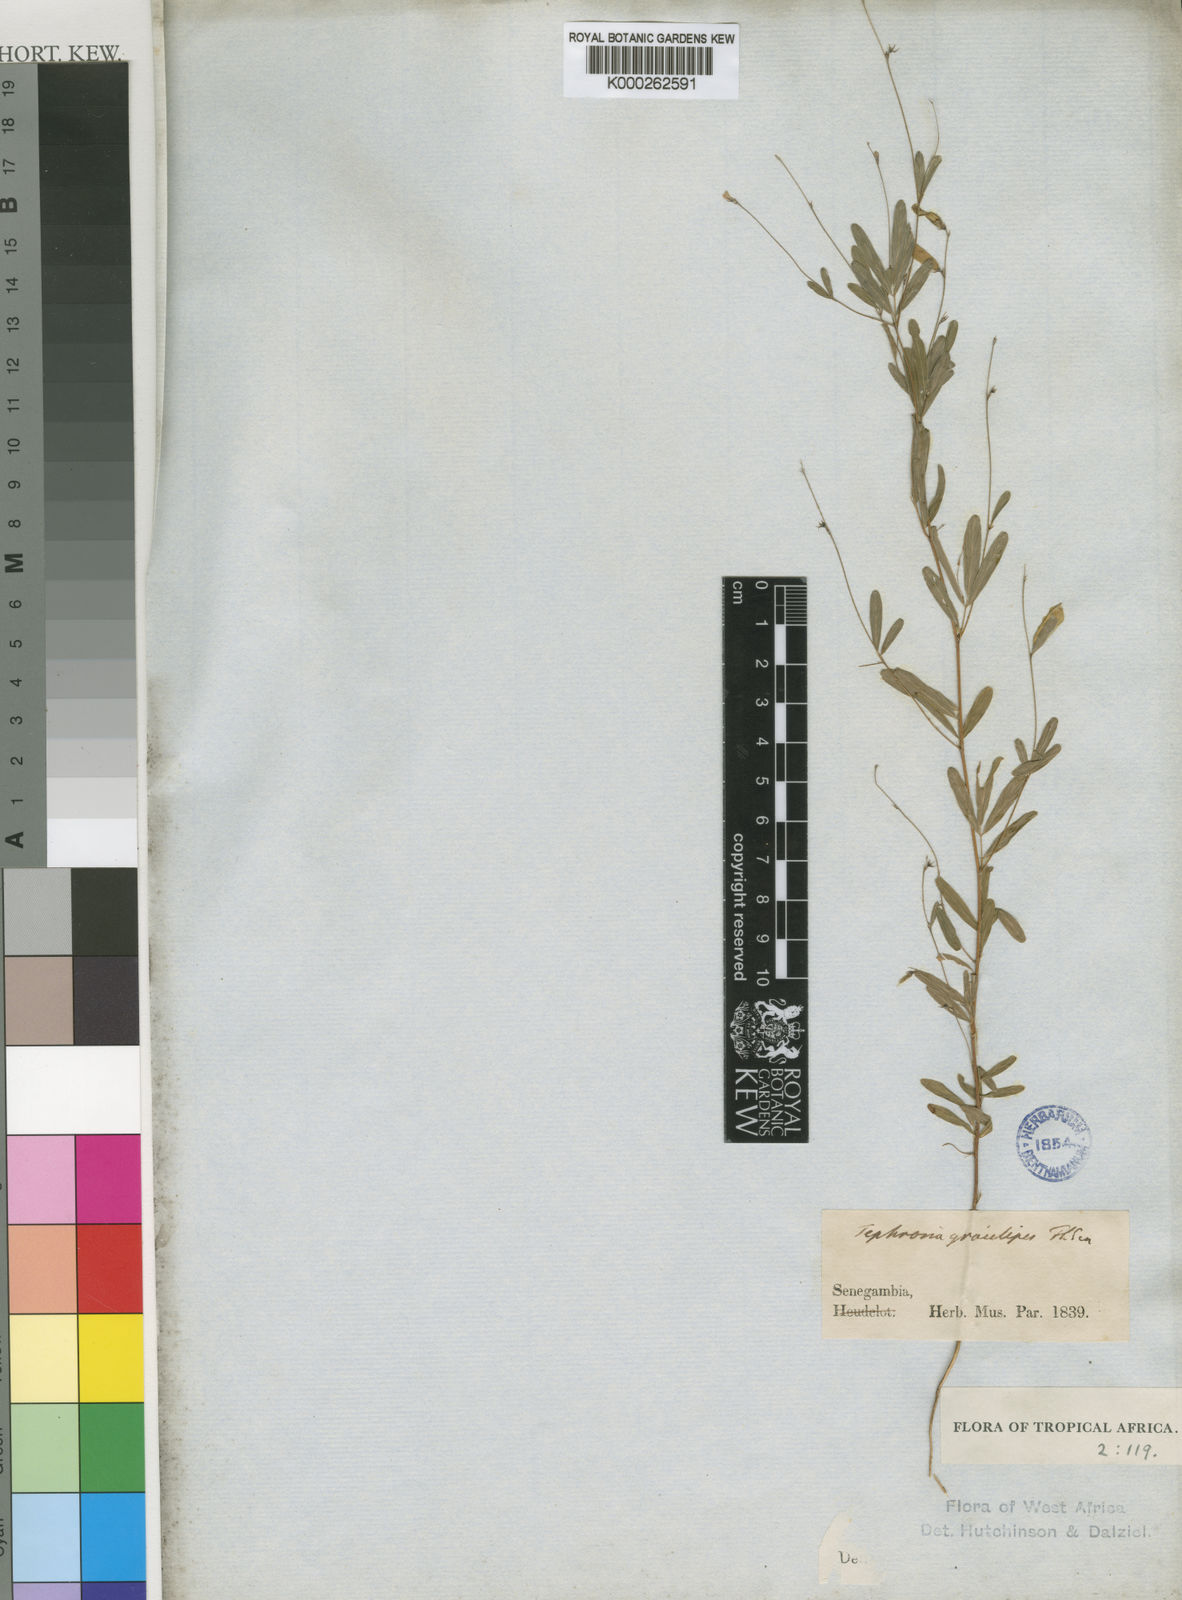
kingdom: Plantae
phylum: Tracheophyta
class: Magnoliopsida
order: Fabales
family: Fabaceae
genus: Tephrosia
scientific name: Tephrosia
